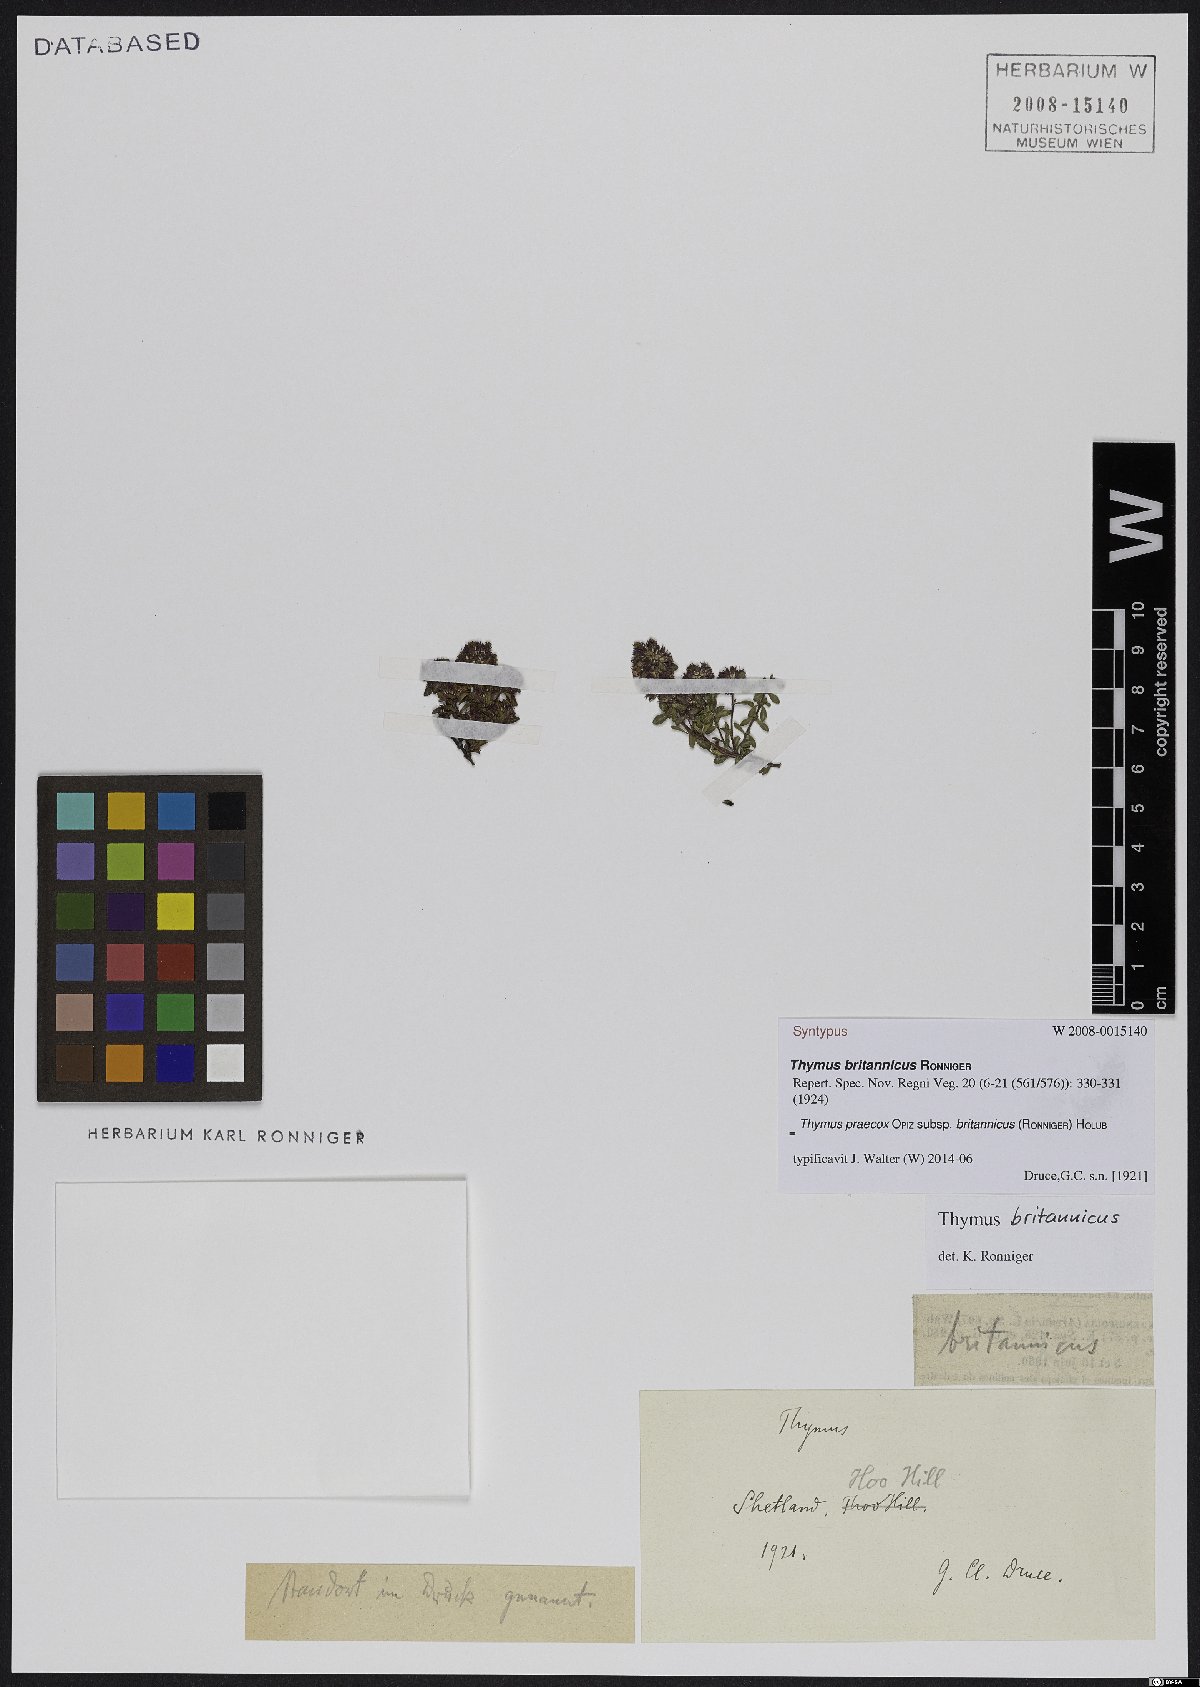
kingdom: Plantae
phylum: Tracheophyta
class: Magnoliopsida
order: Lamiales
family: Lamiaceae
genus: Thymus
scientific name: Thymus praecox
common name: Wild thyme
